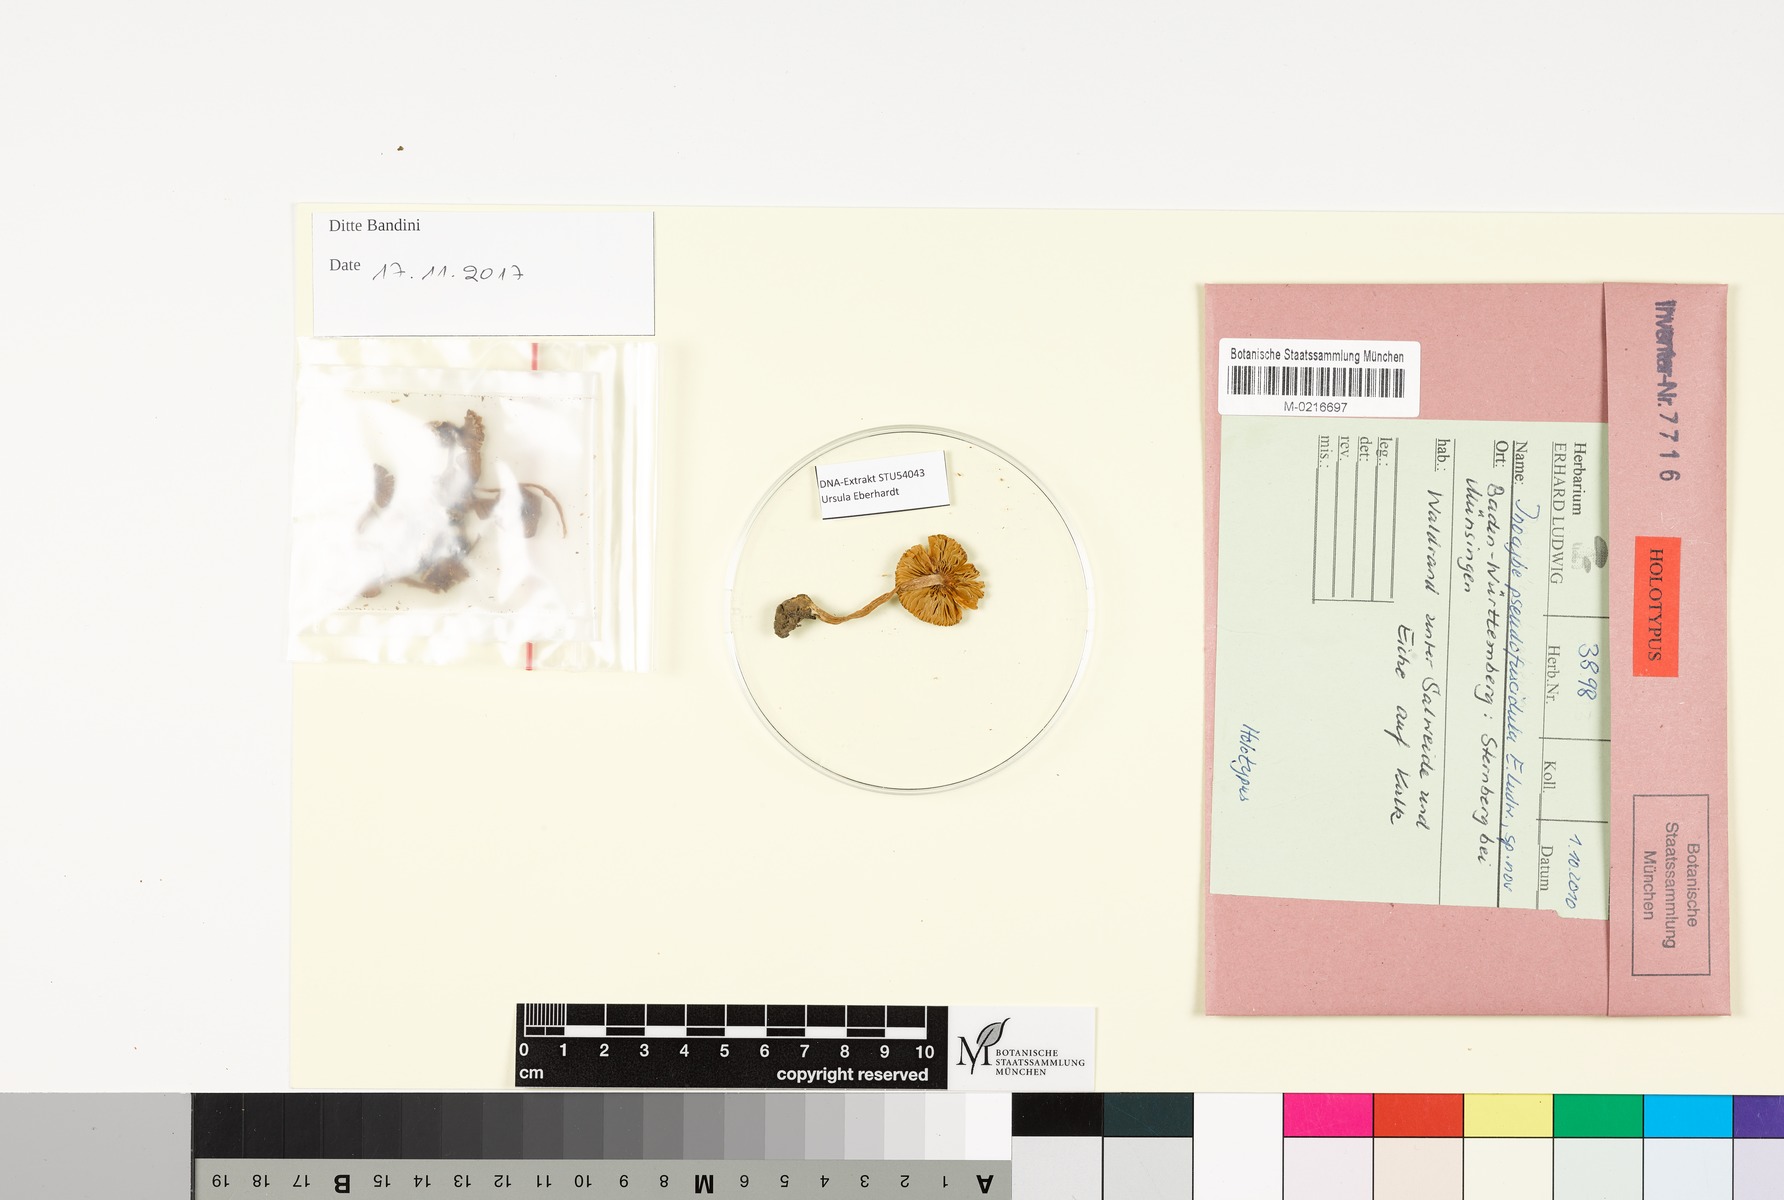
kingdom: Fungi
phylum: Basidiomycota
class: Agaricomycetes
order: Agaricales
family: Inocybaceae
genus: Inocybe
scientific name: Inocybe pseudofuscidula
